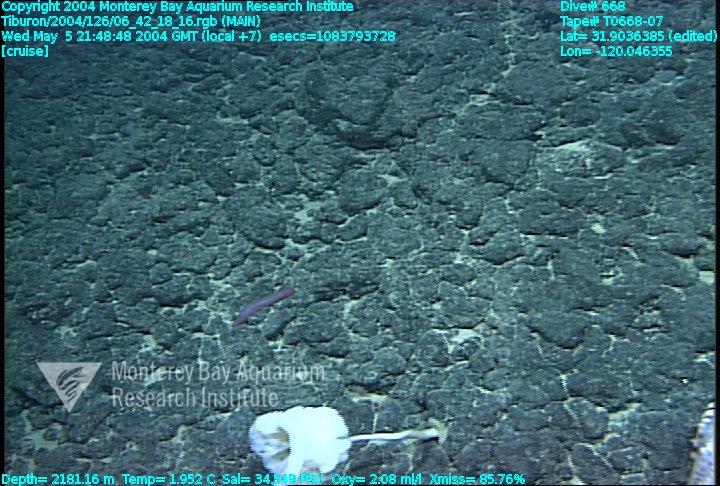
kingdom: Animalia
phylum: Porifera
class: Hexactinellida
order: Lyssacinosida
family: Euplectellidae
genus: Saccocalyx
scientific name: Saccocalyx pedunculatus
